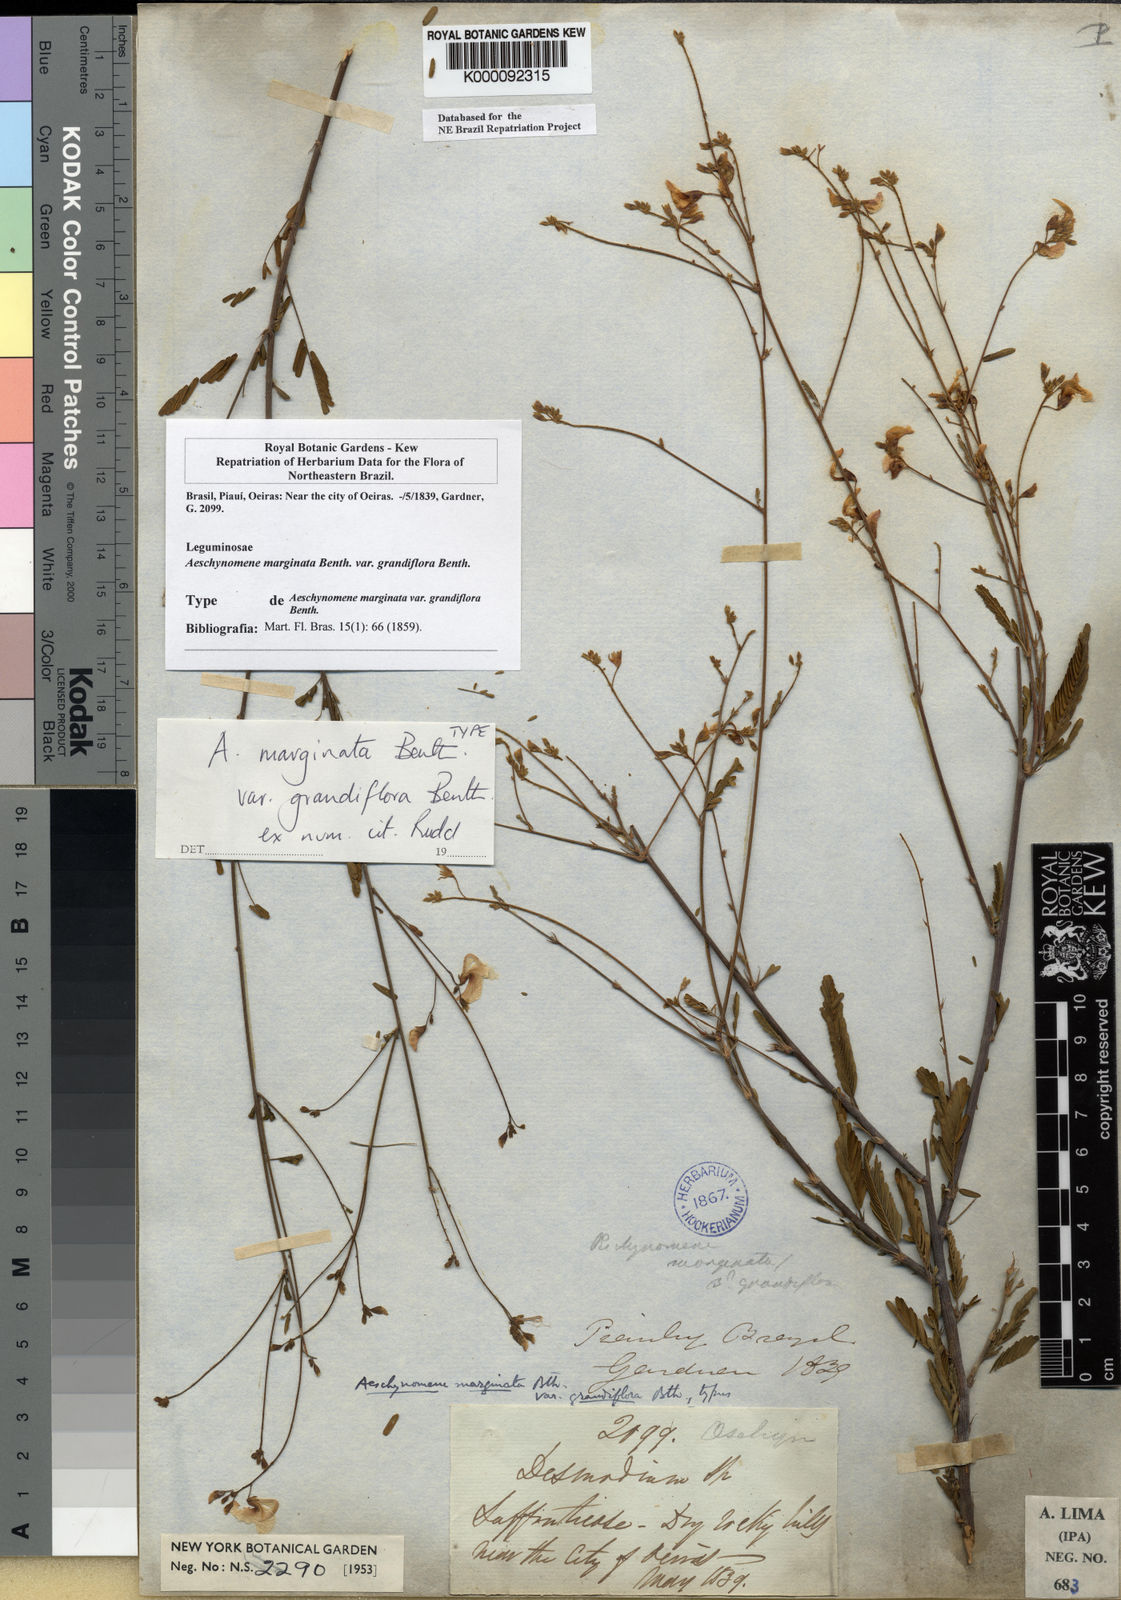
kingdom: Plantae
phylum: Tracheophyta
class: Magnoliopsida
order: Fabales
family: Fabaceae
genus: Ctenodon
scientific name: Ctenodon marginatus
